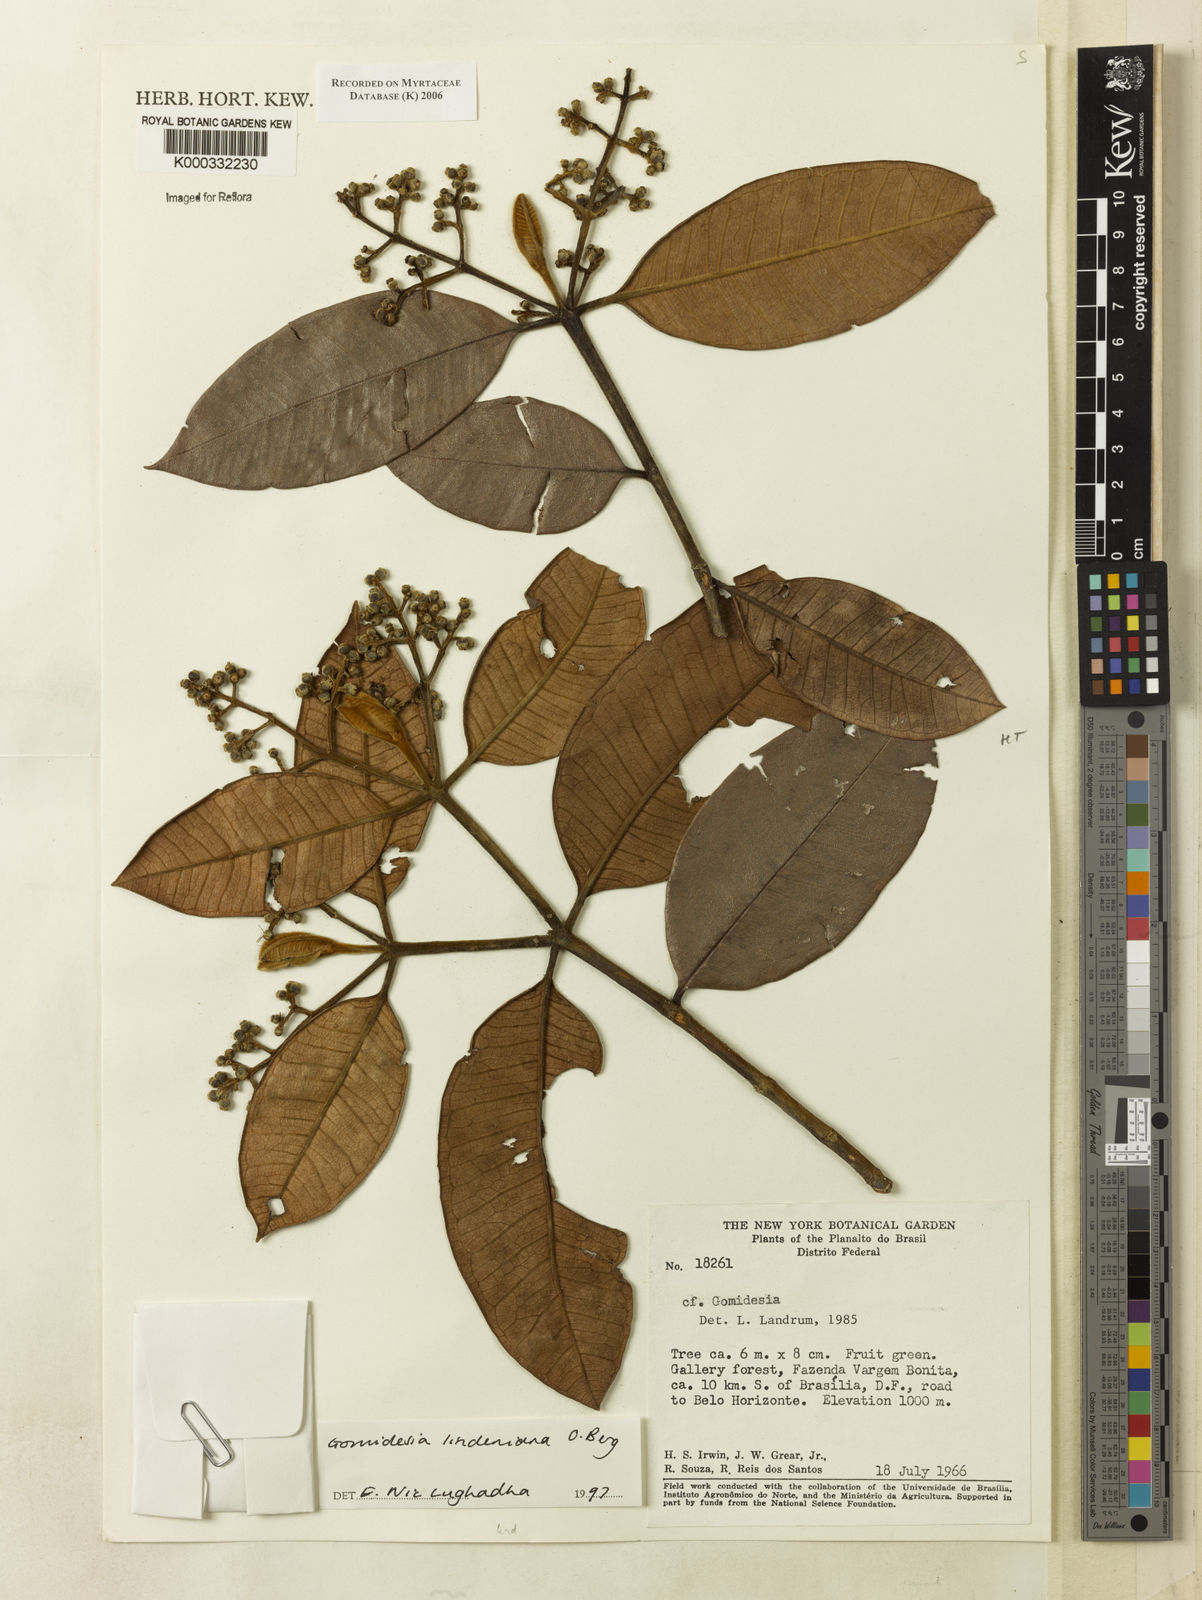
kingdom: Plantae
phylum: Tracheophyta
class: Magnoliopsida
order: Myrtales
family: Myrtaceae
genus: Myrcia
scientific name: Myrcia fenzliana
